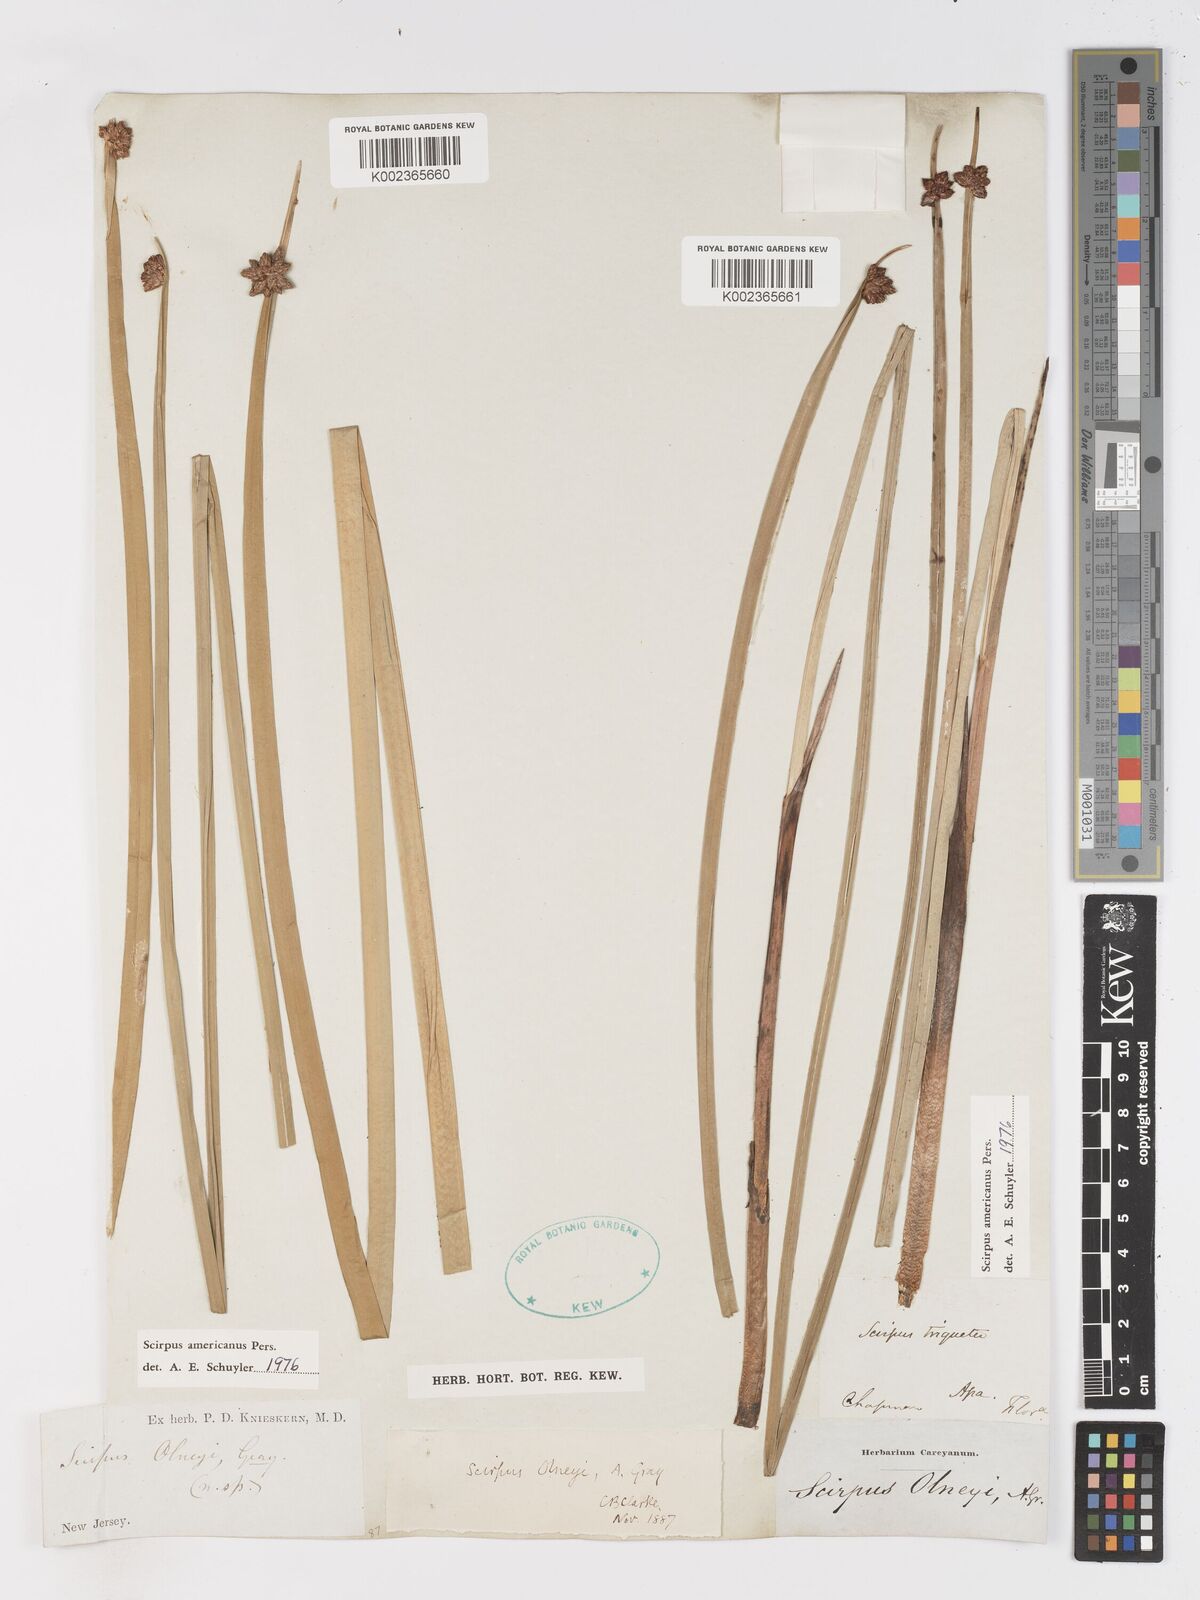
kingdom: Plantae
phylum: Tracheophyta
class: Liliopsida
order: Poales
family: Cyperaceae
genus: Schoenoplectus
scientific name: Schoenoplectus americanus
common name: American three-square bulrush
